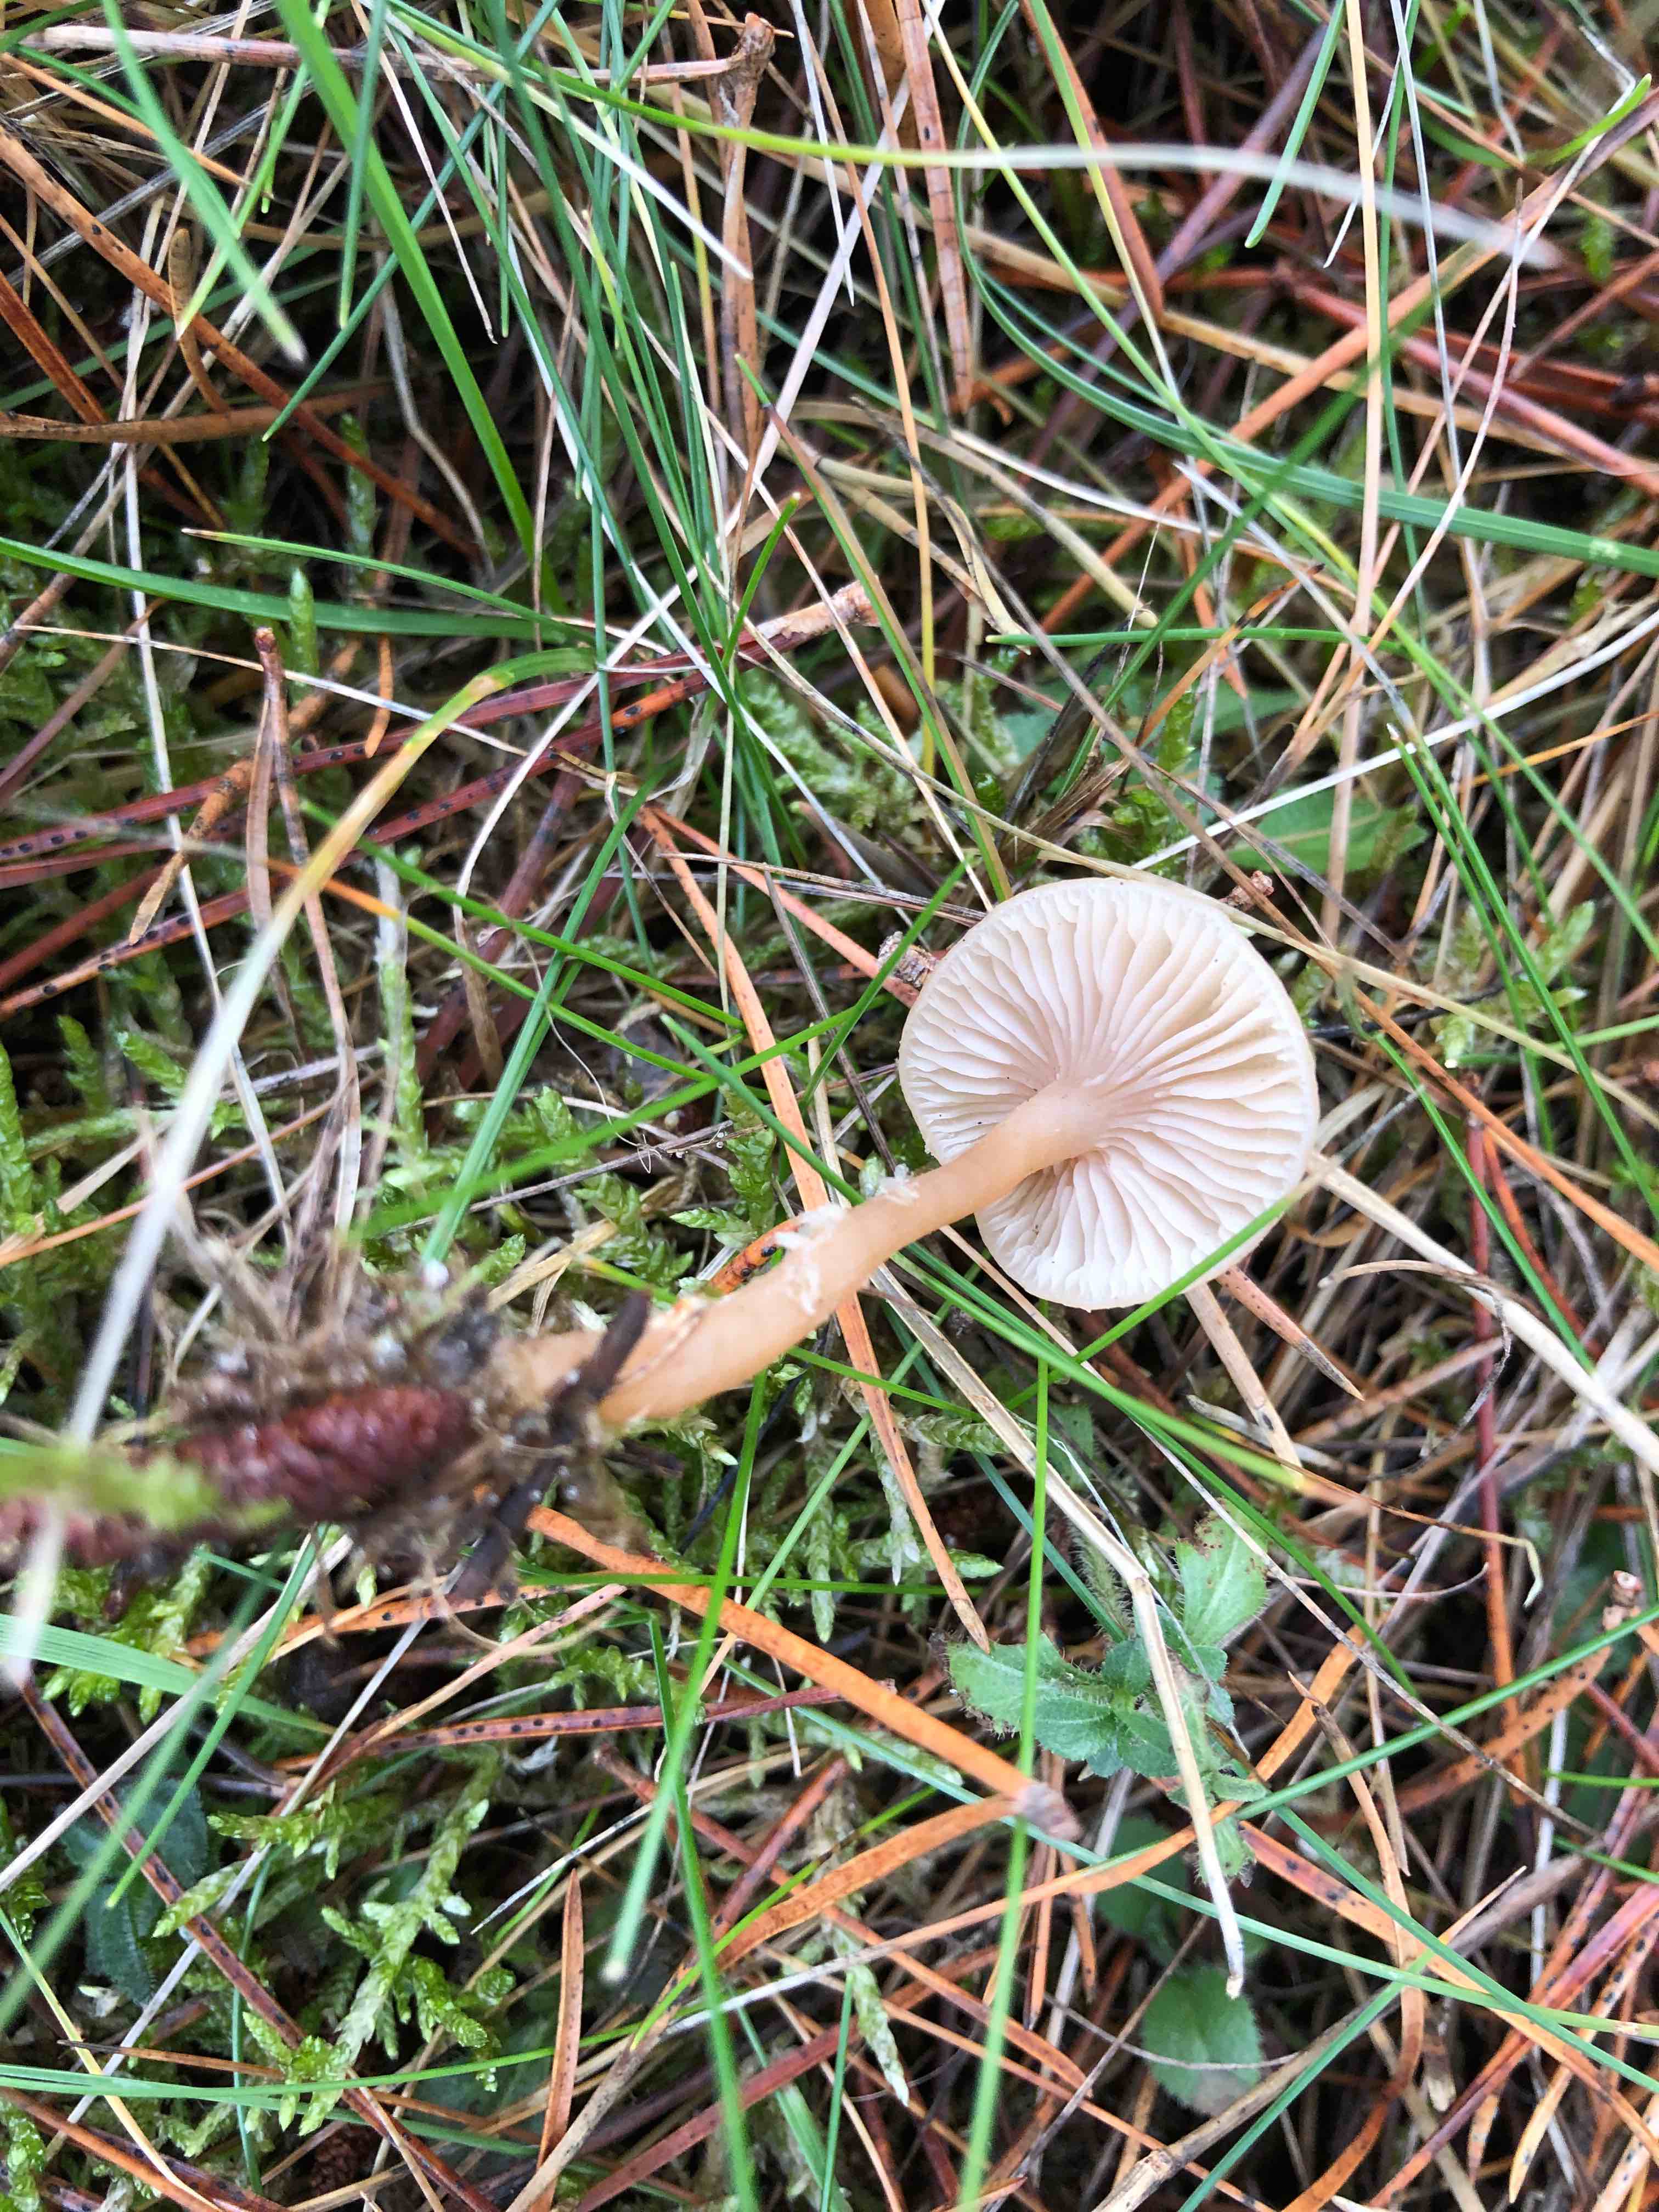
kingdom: Fungi
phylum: Basidiomycota
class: Agaricomycetes
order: Agaricales
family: Tricholomataceae
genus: Clitocybe
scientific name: Clitocybe fragrans
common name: vellugtende tragthat
